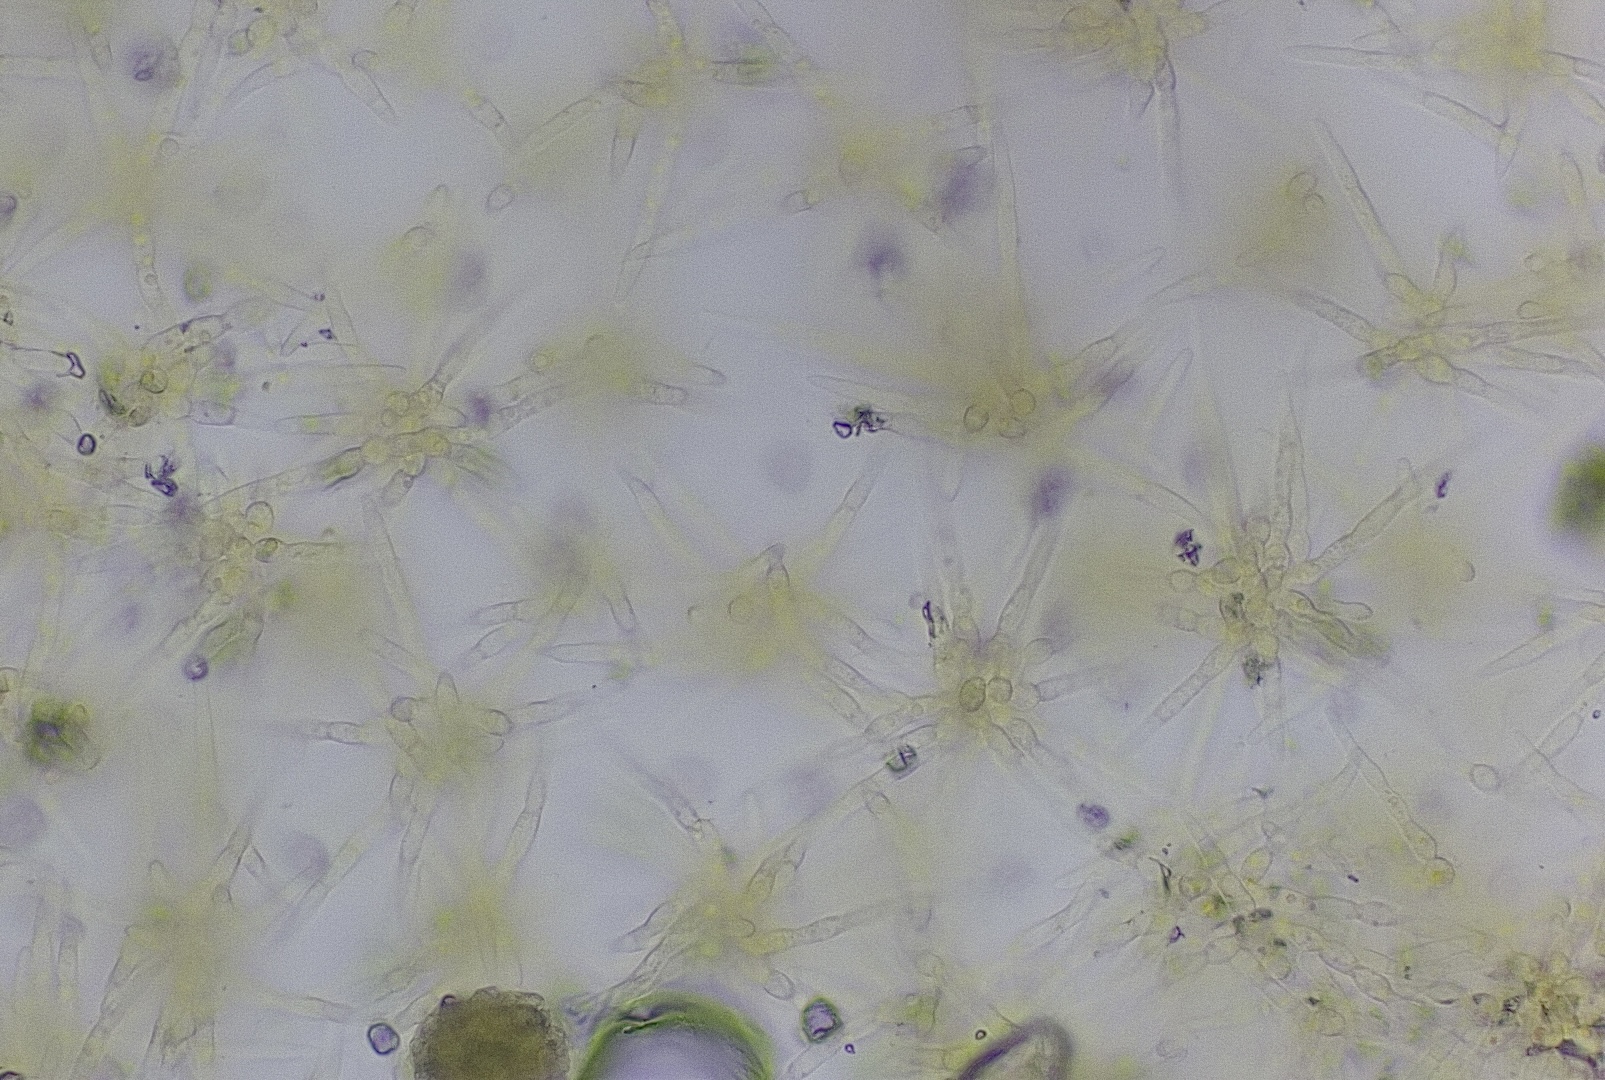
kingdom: Fungi
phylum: Ascomycota
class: Sordariomycetes
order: Xylariales
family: Xylariaceae
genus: Digitodochium
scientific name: Digitodochium rhodoleucum
